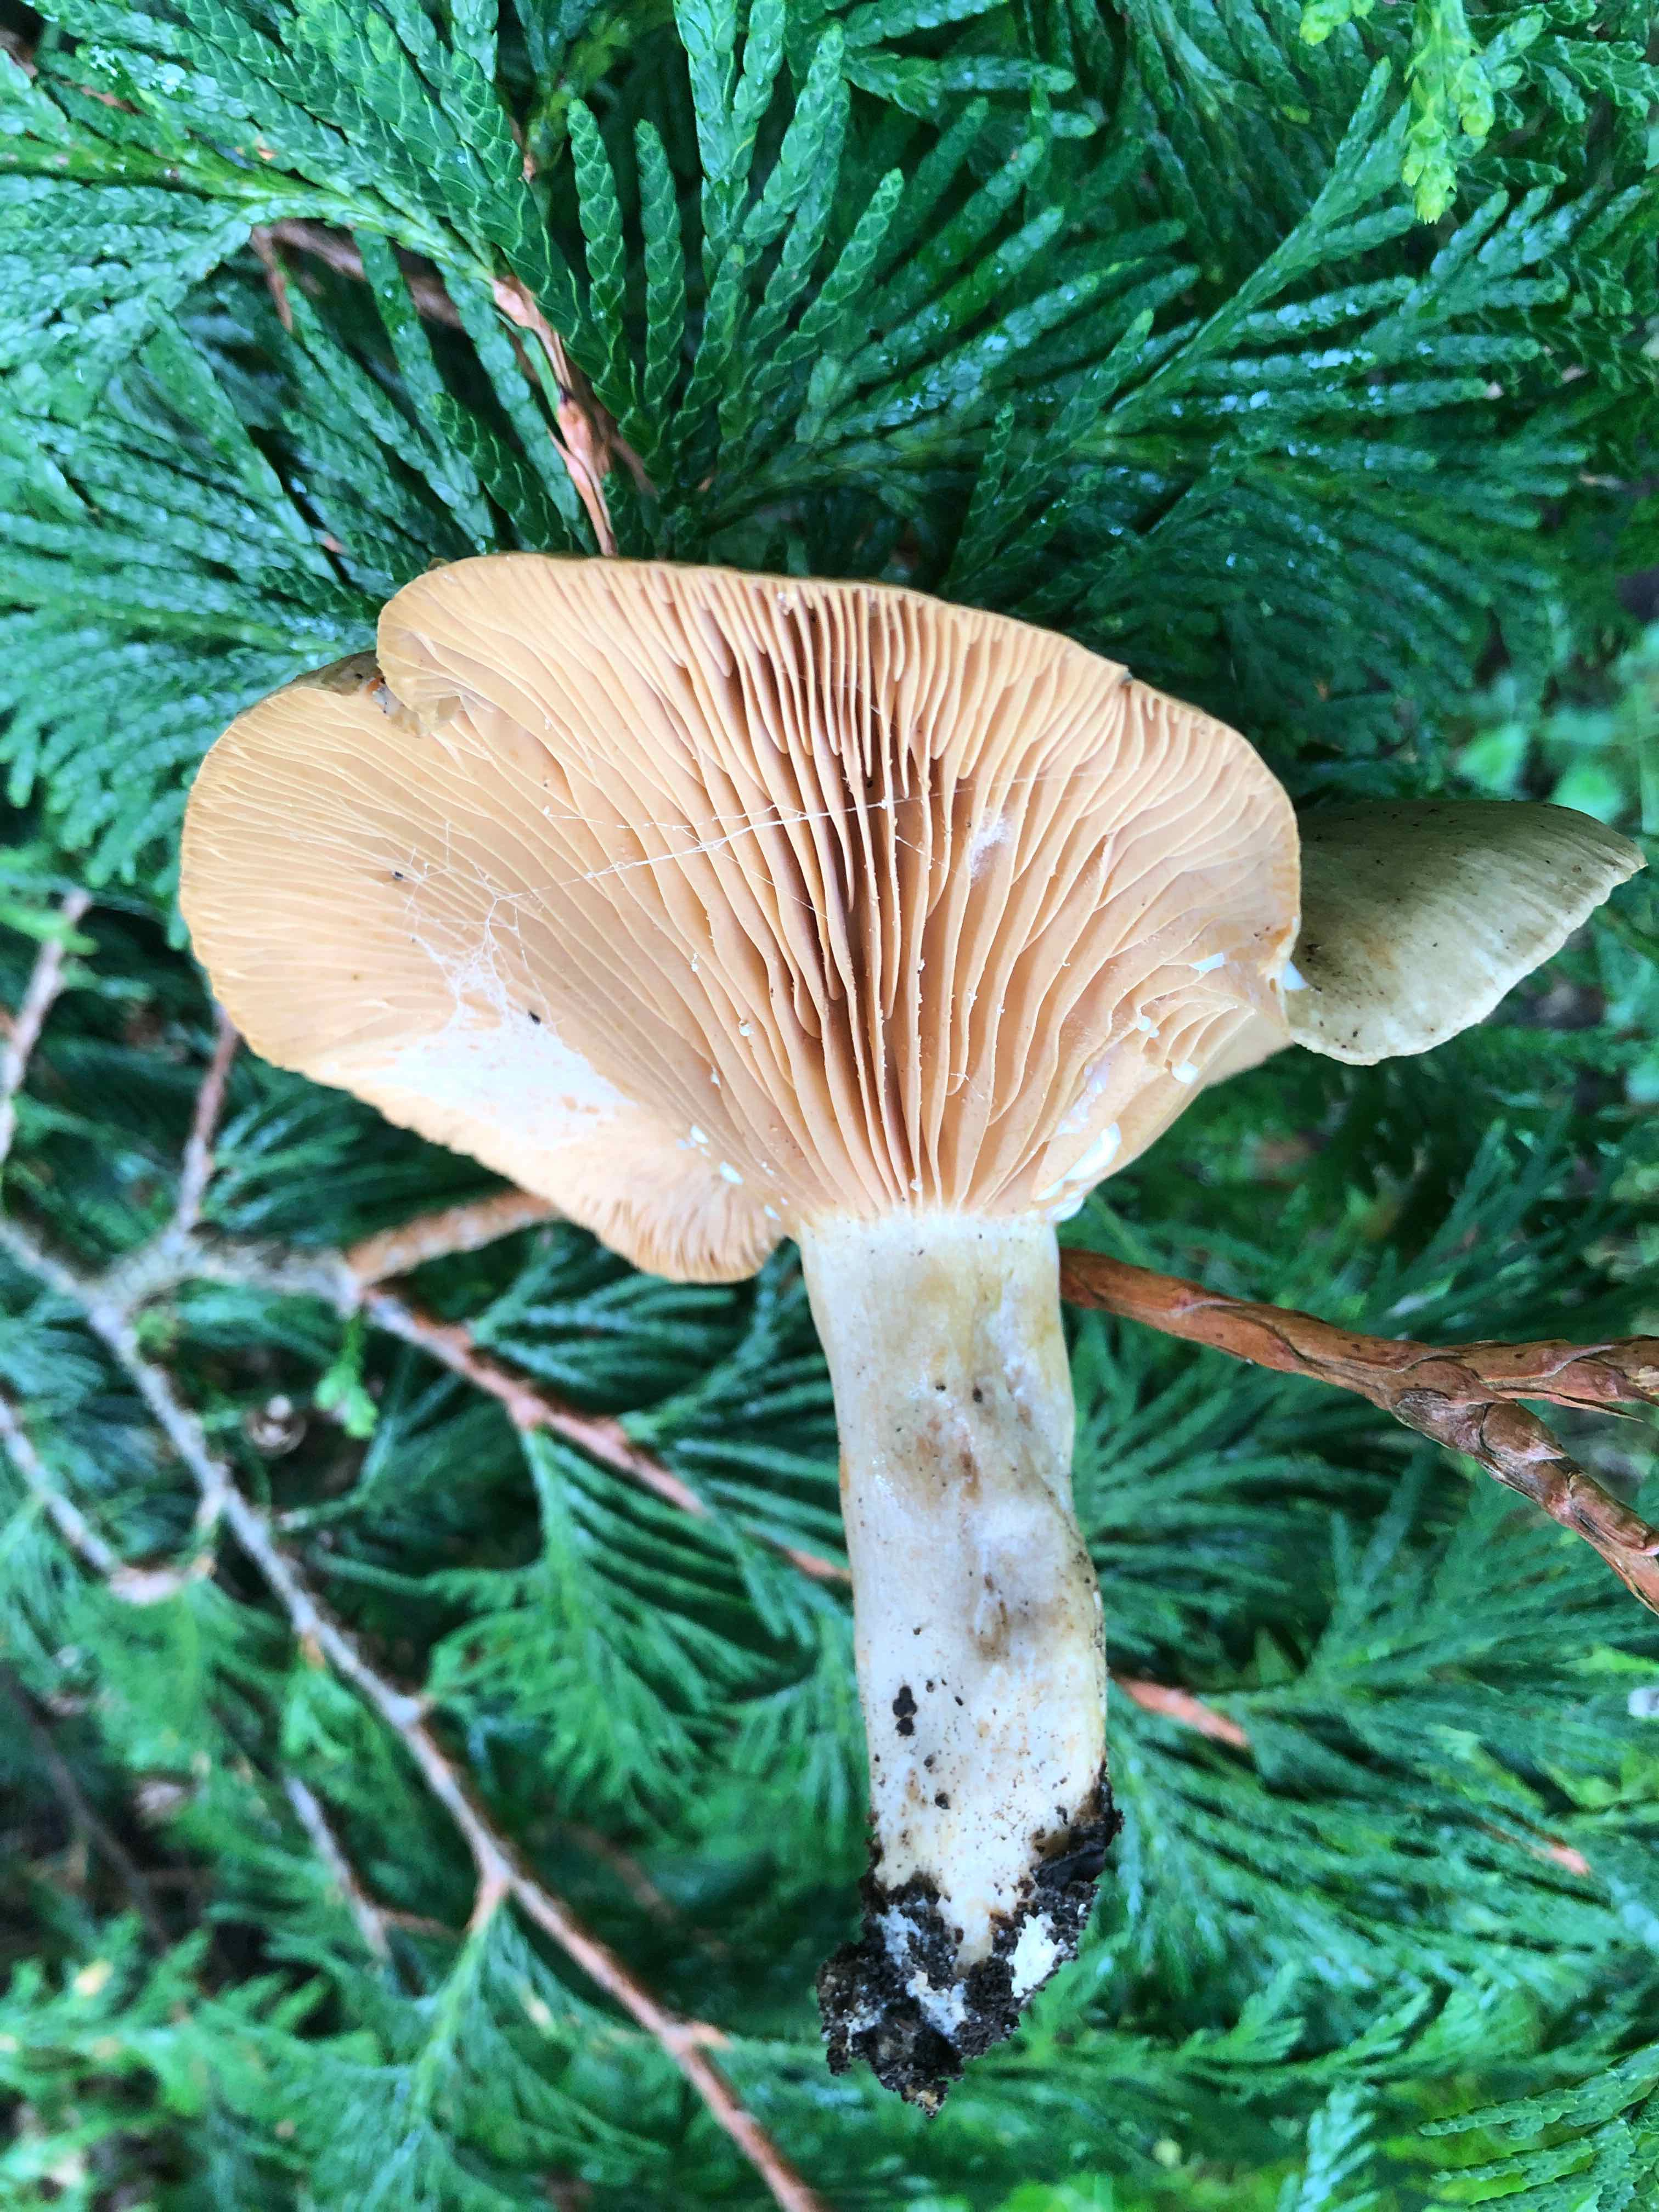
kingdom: Fungi
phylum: Basidiomycota
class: Agaricomycetes
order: Russulales
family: Russulaceae
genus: Lactarius
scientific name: Lactarius pyrogalus
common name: hassel-mælkehat
